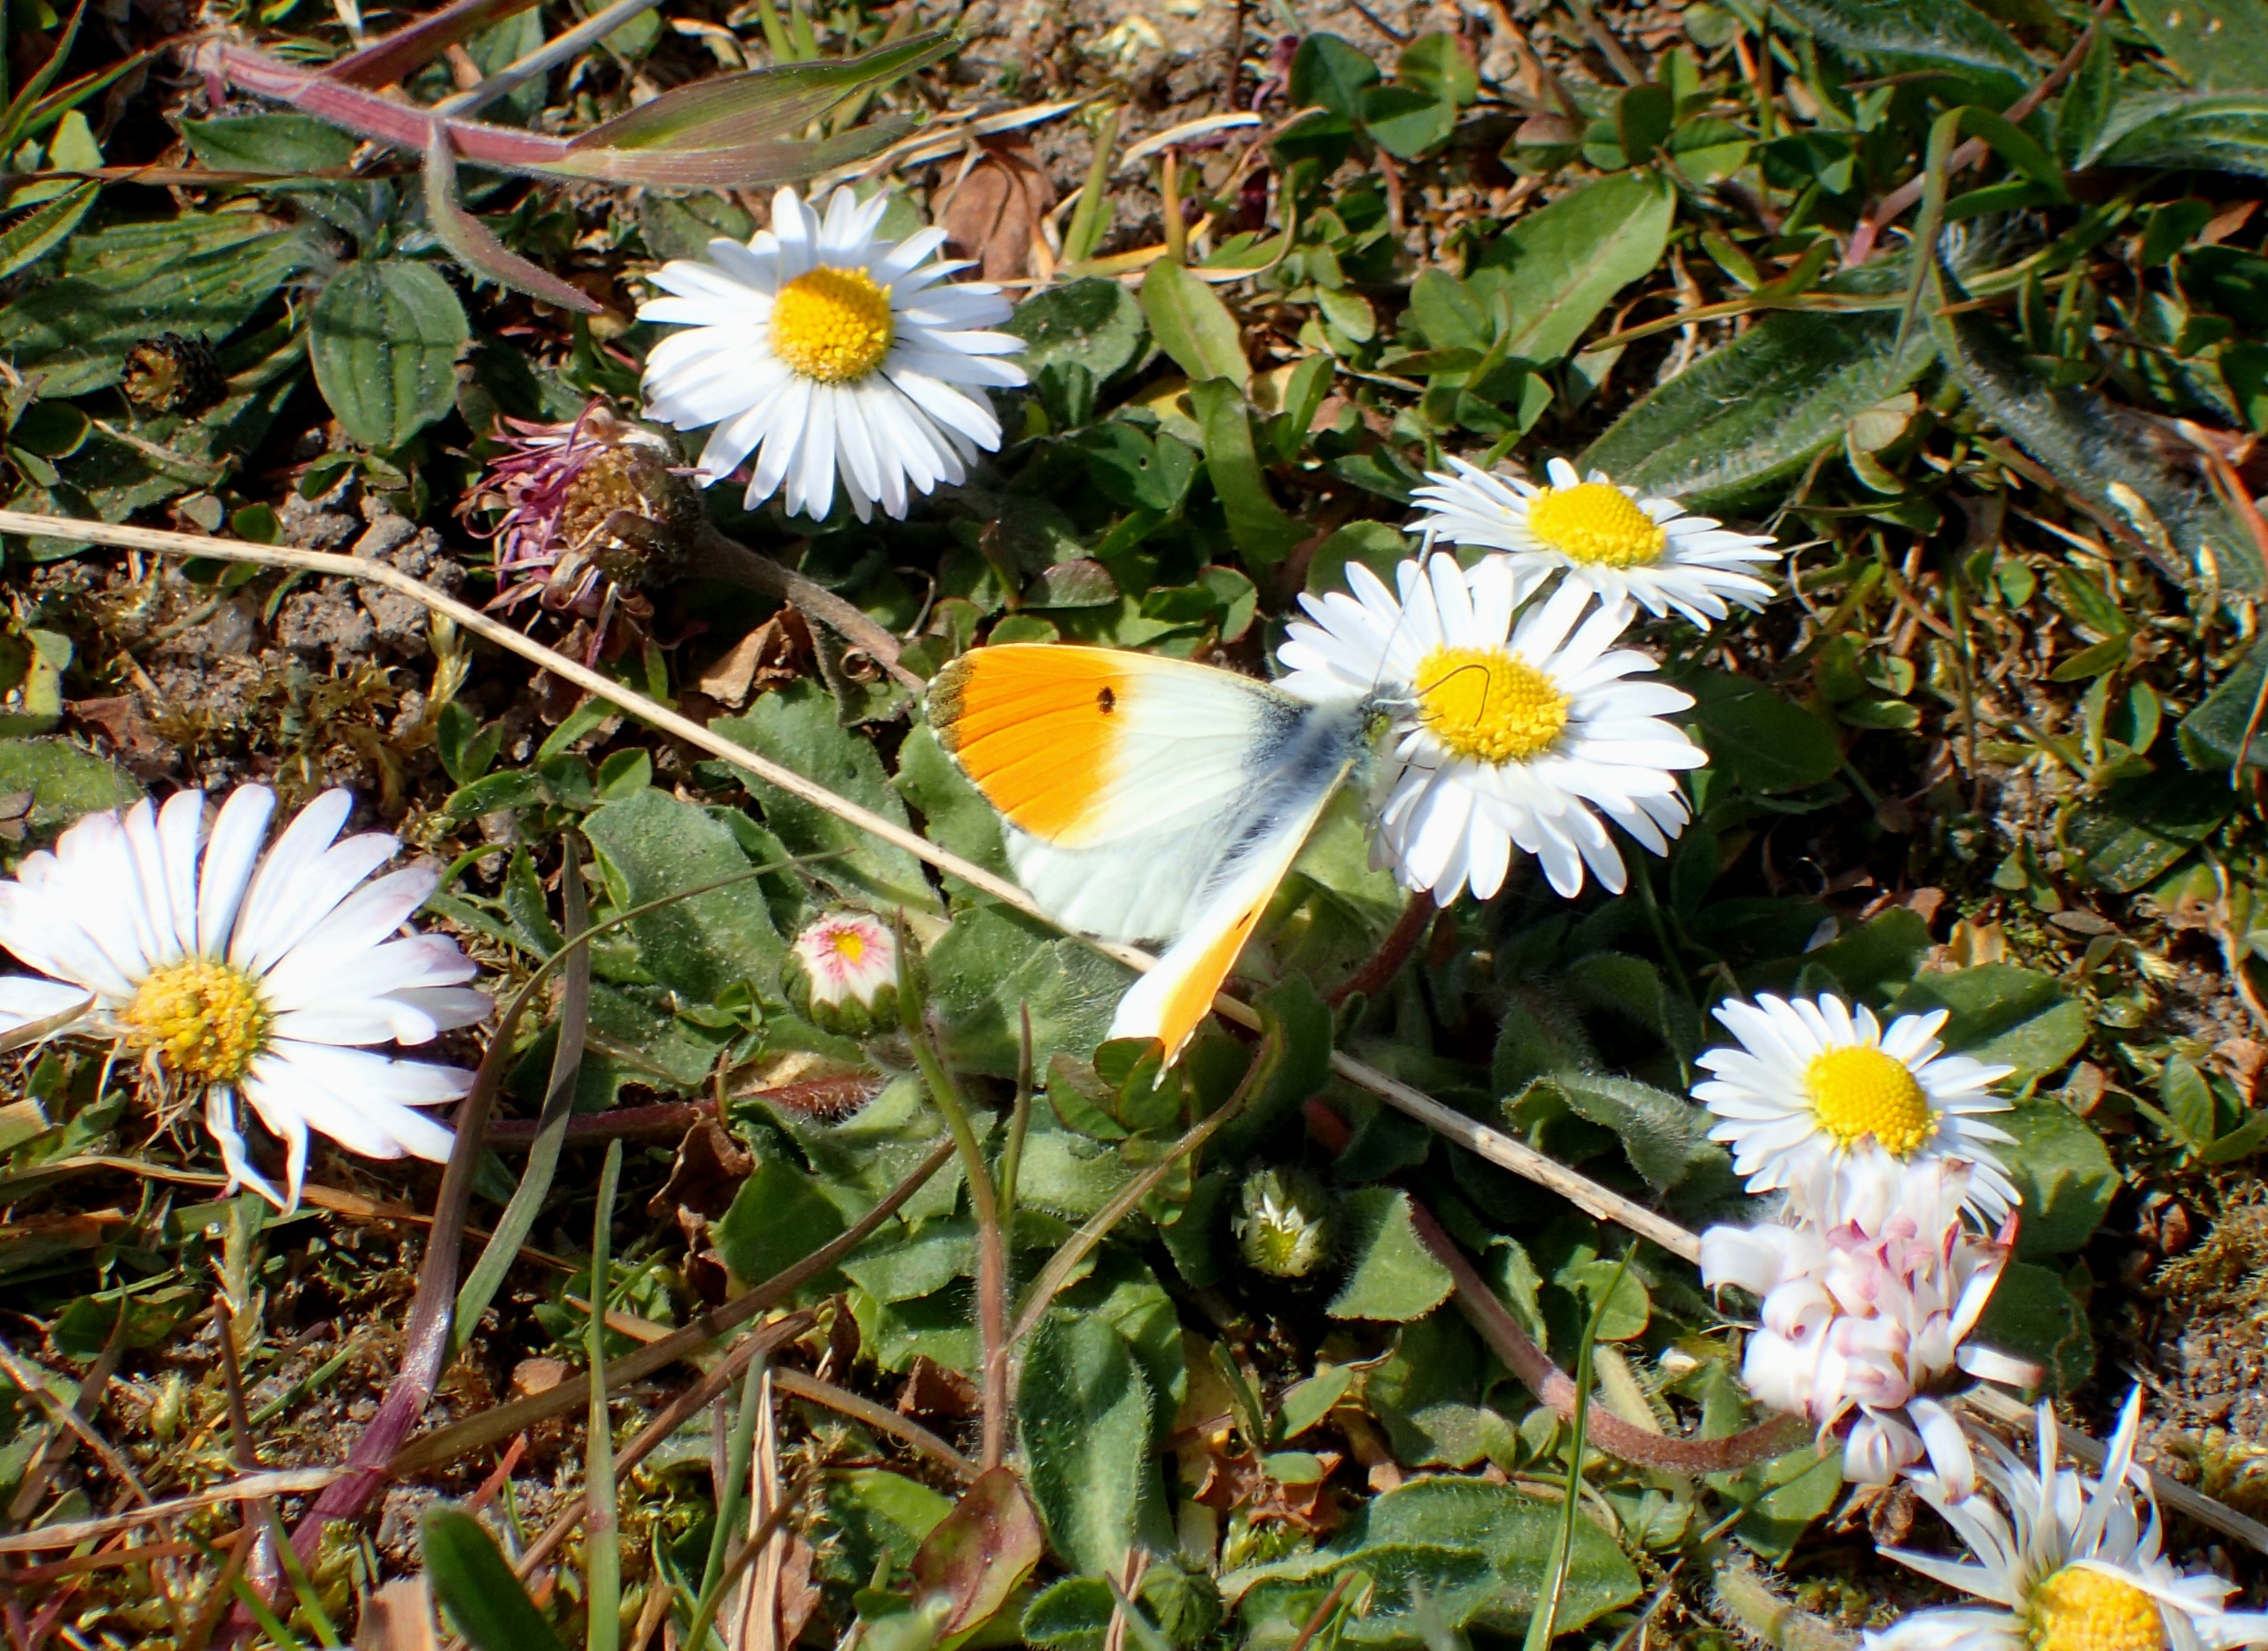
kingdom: Animalia
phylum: Arthropoda
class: Insecta
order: Lepidoptera
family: Pieridae
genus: Anthocharis
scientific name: Anthocharis cardamines
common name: Aurora
